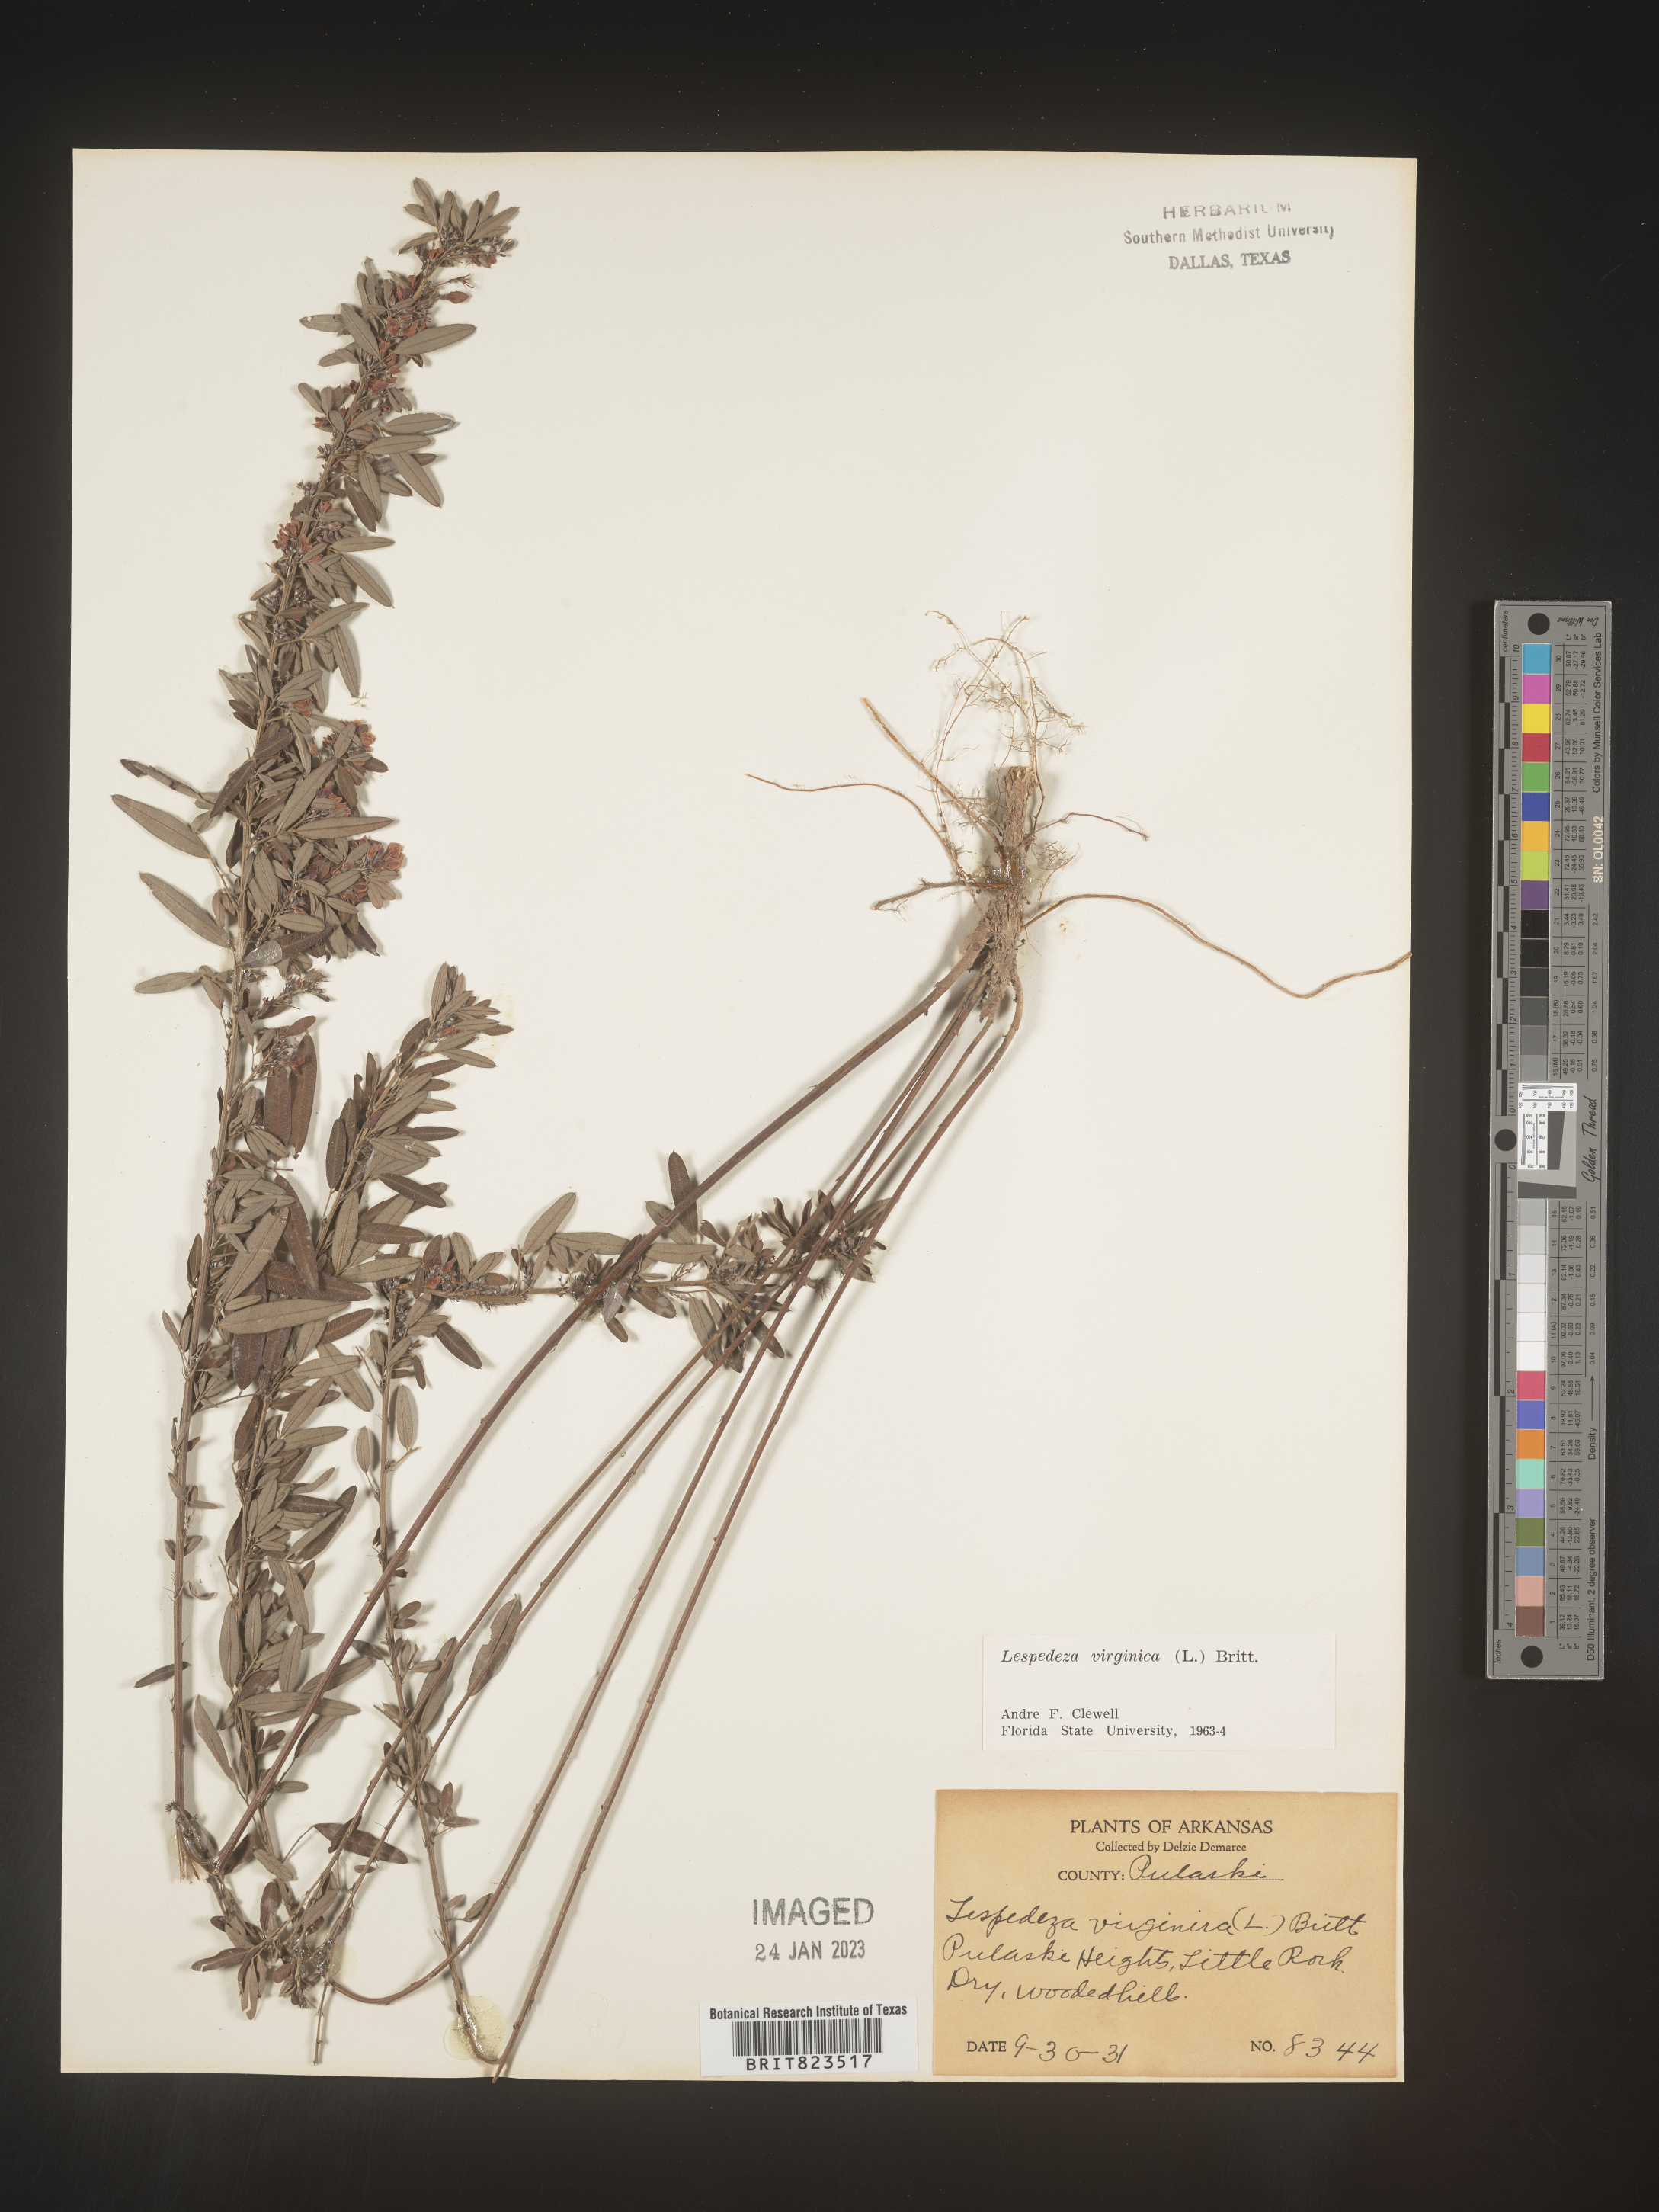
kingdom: Plantae
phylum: Tracheophyta
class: Magnoliopsida
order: Fabales
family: Fabaceae
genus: Lespedeza
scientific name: Lespedeza virginica
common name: Slender bush-clover
